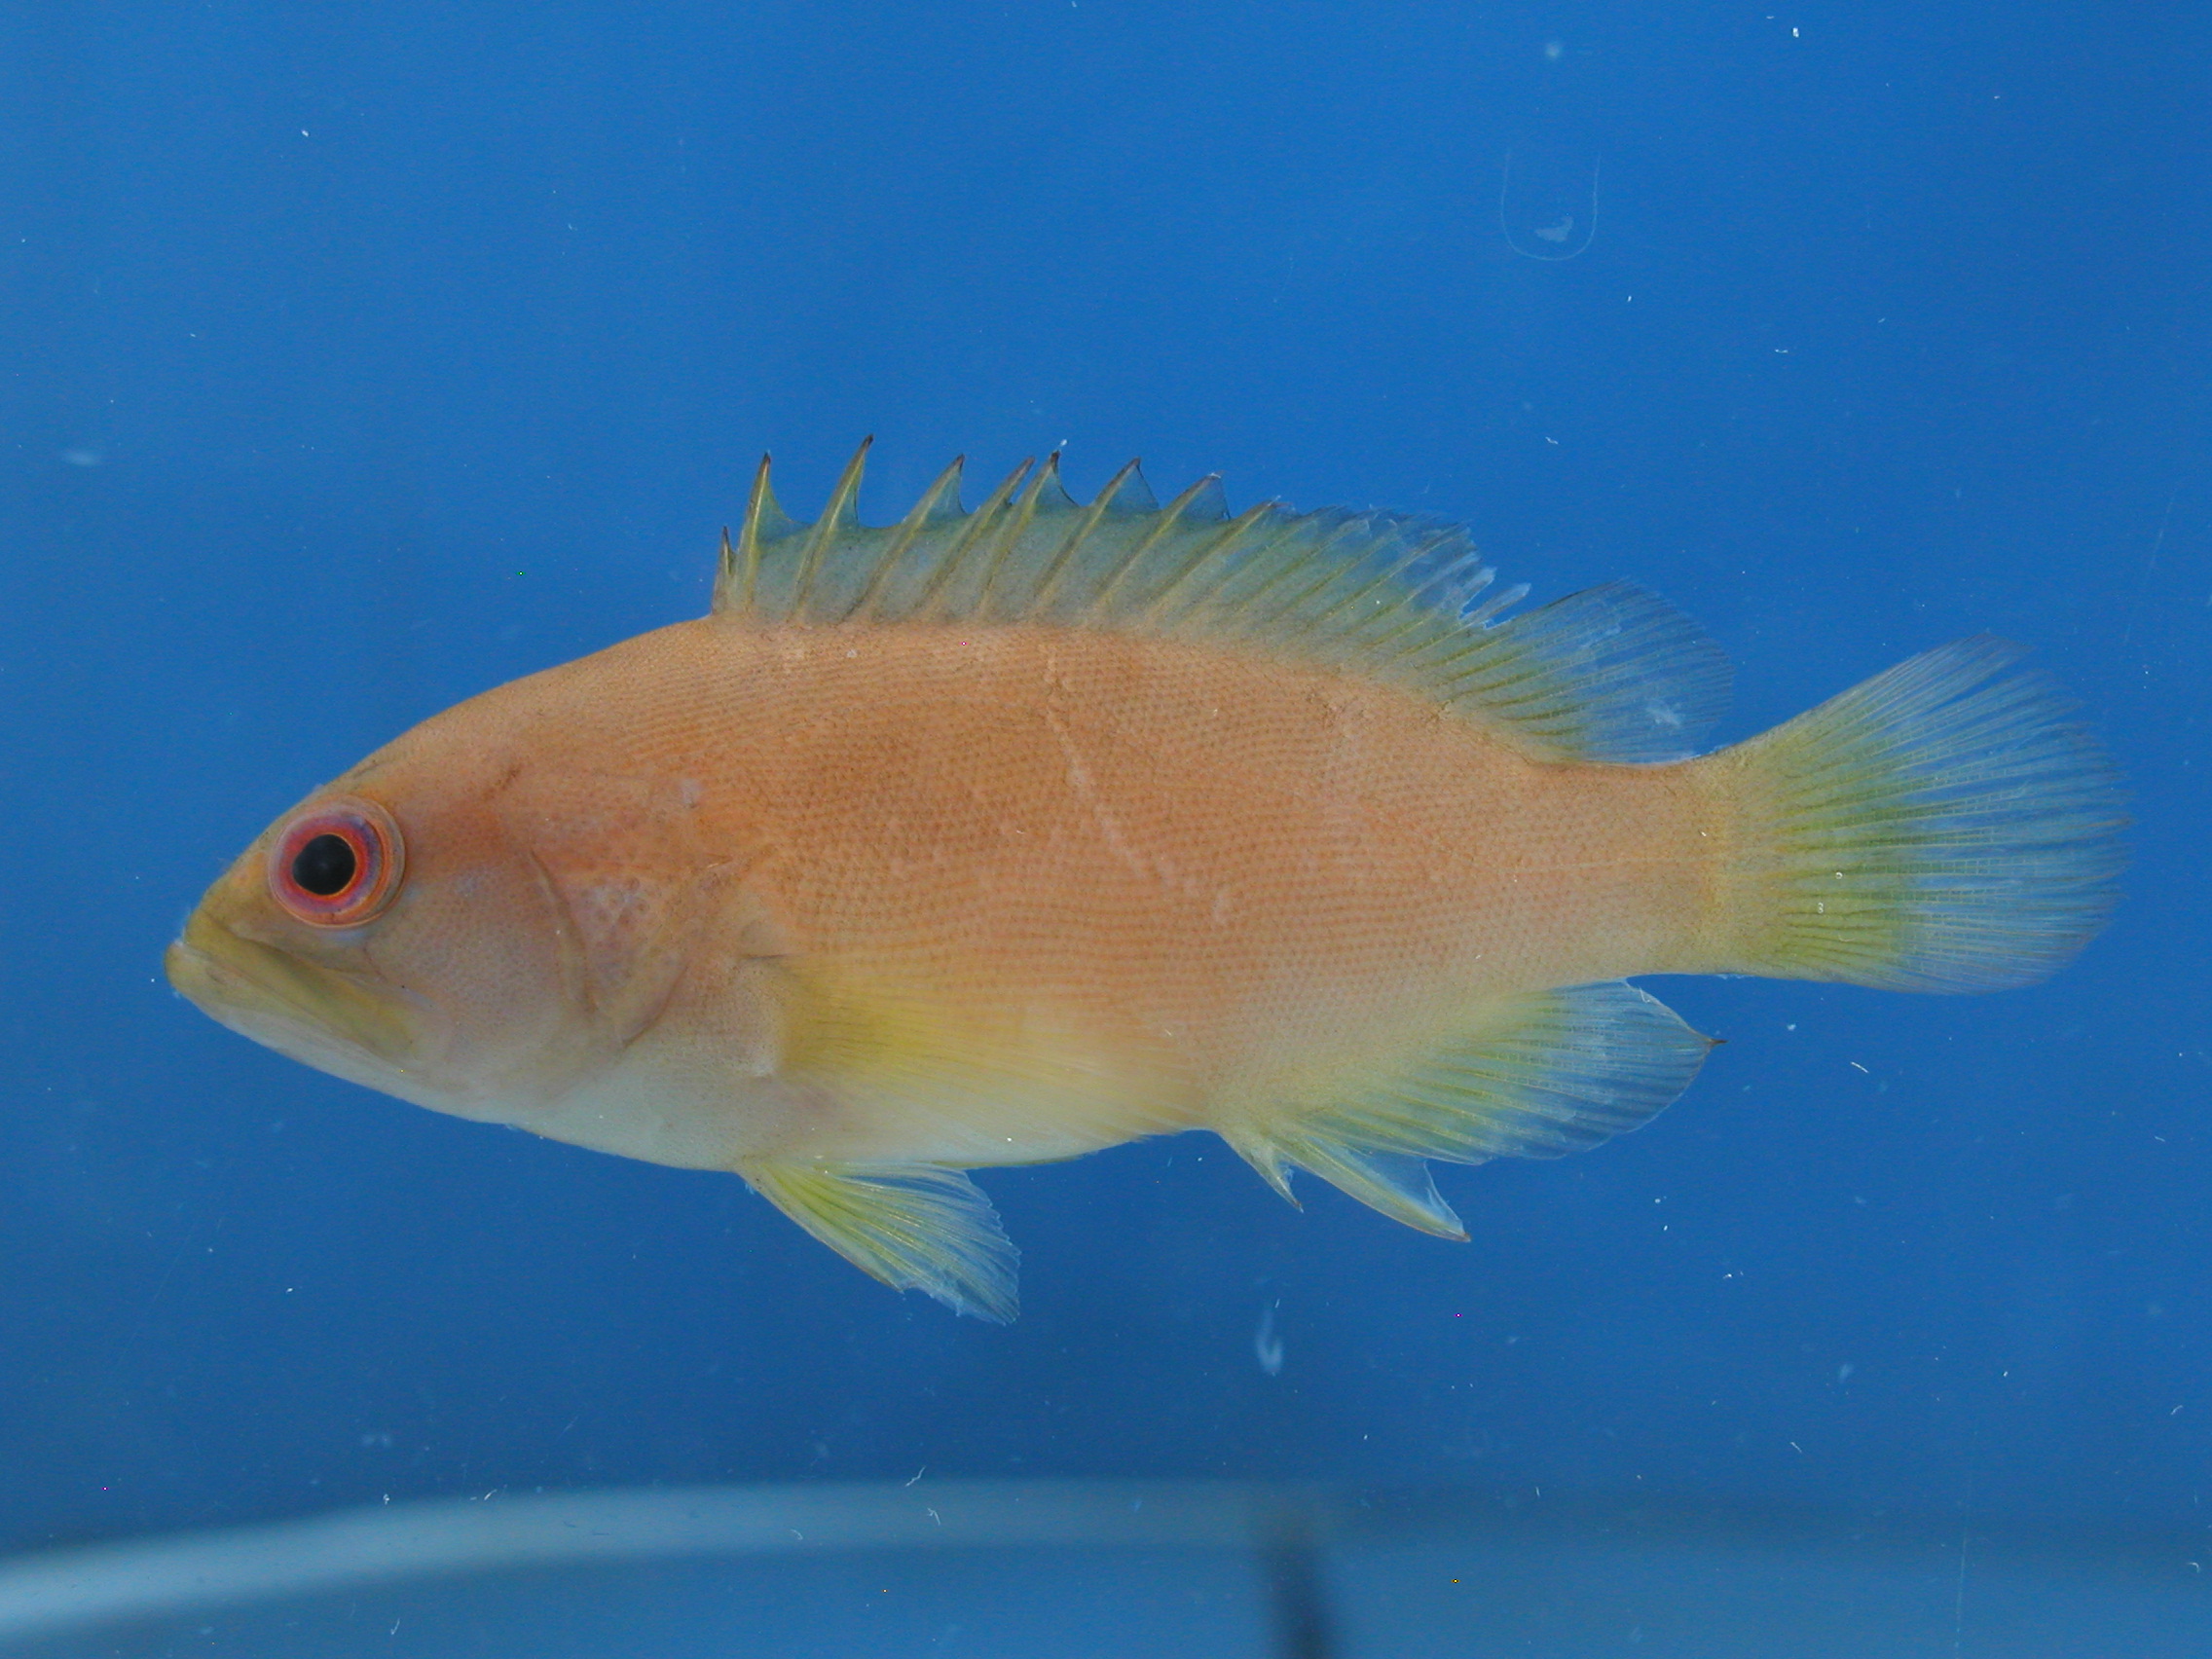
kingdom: Animalia
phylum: Chordata
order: Perciformes
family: Serranidae
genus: Cephalopholis
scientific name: Cephalopholis aurantia
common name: Golden hind
